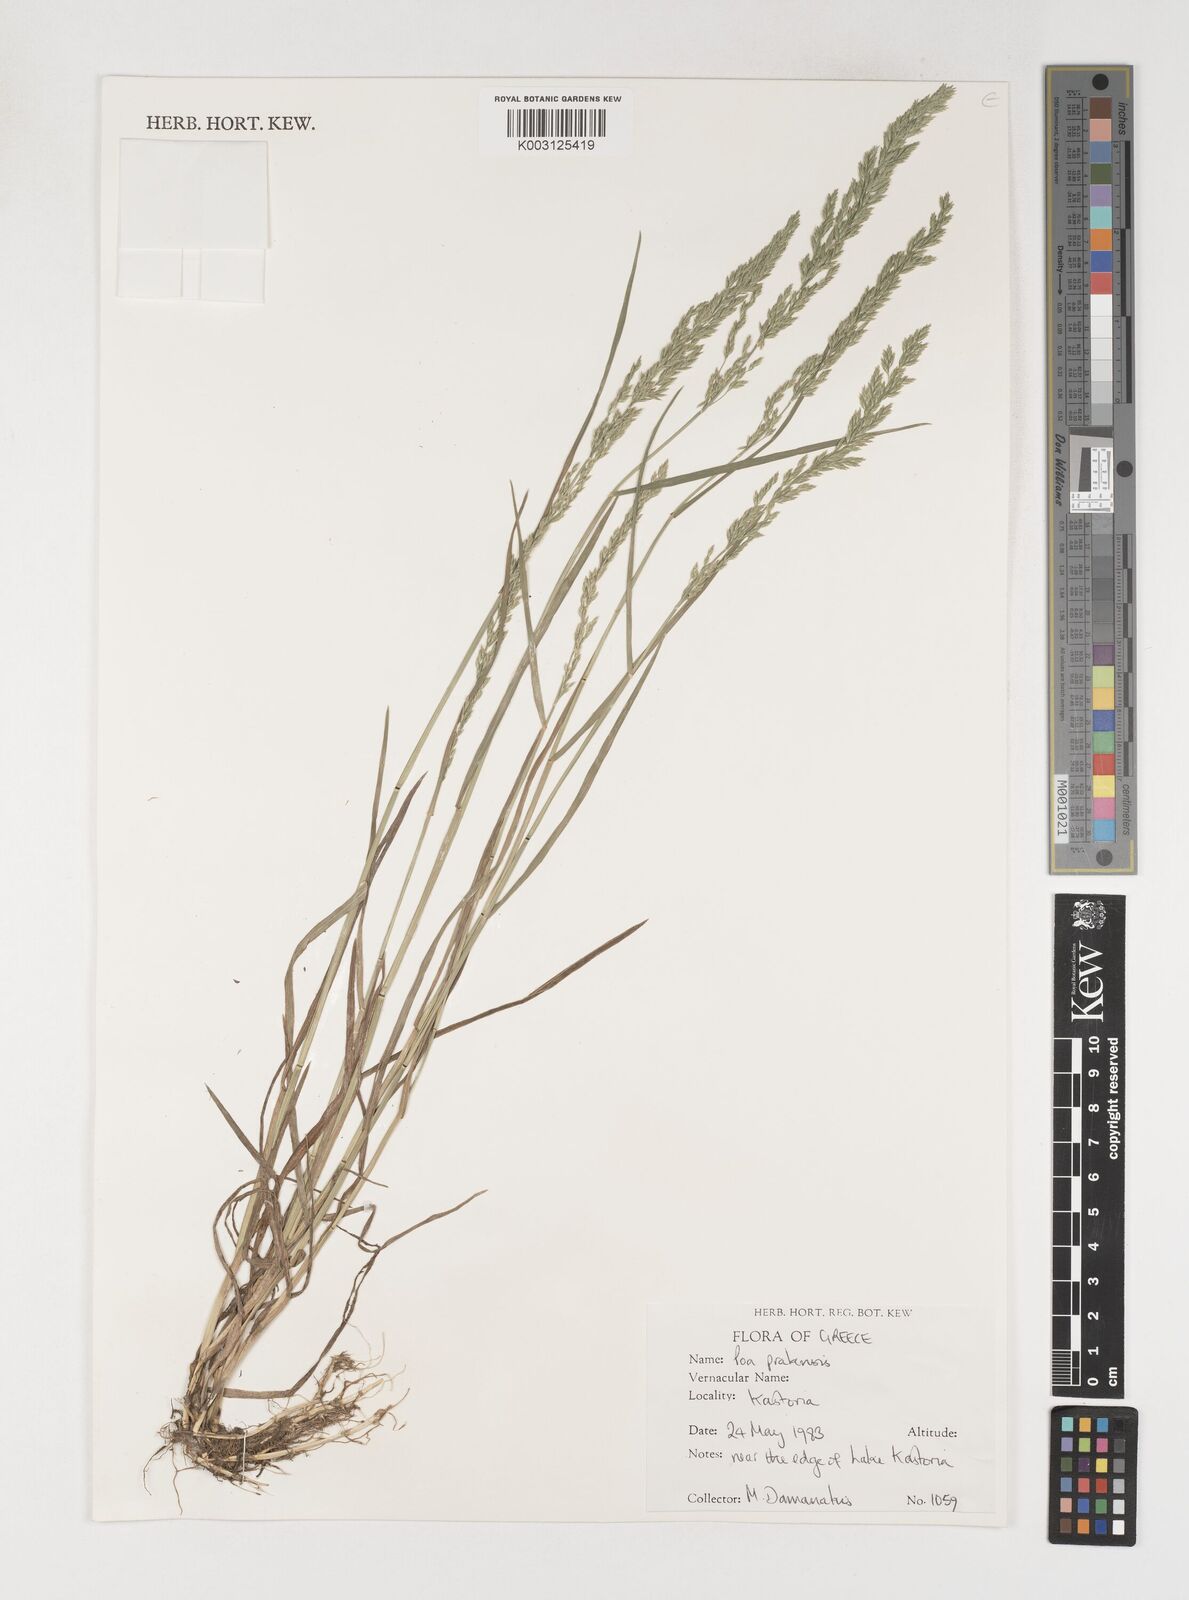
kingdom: Plantae
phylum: Tracheophyta
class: Liliopsida
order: Poales
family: Poaceae
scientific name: Poaceae
